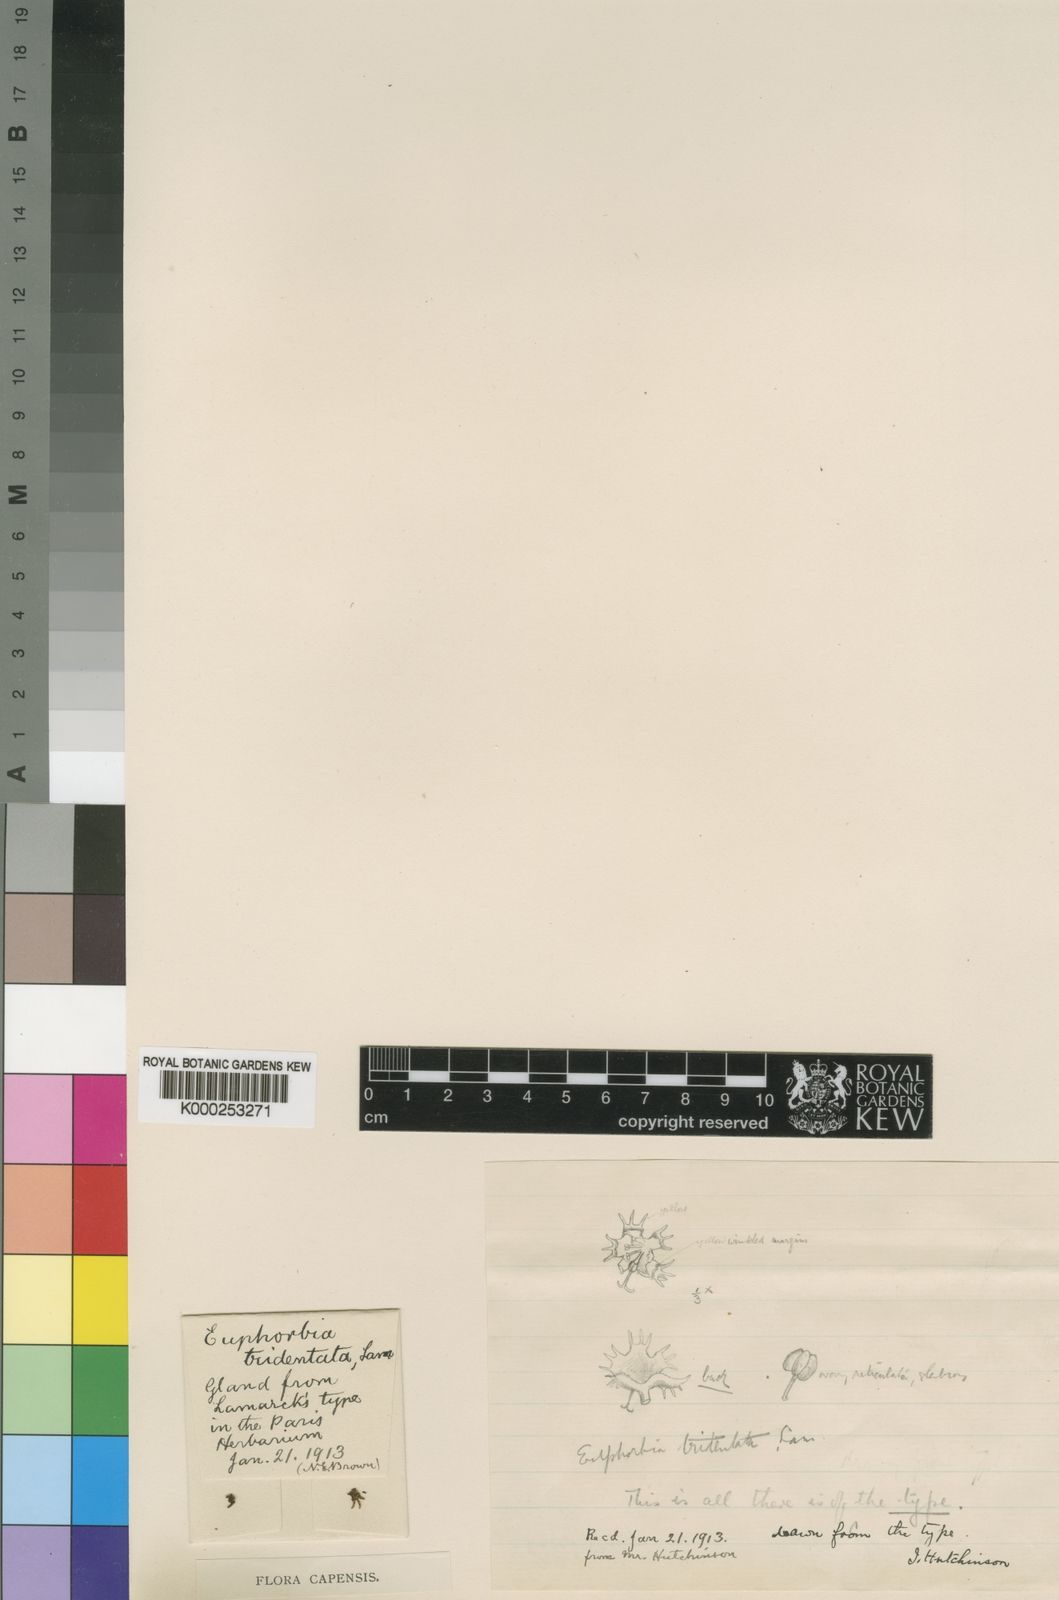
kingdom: Plantae
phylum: Tracheophyta
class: Magnoliopsida
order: Malpighiales
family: Euphorbiaceae
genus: Euphorbia
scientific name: Euphorbia tridentata
